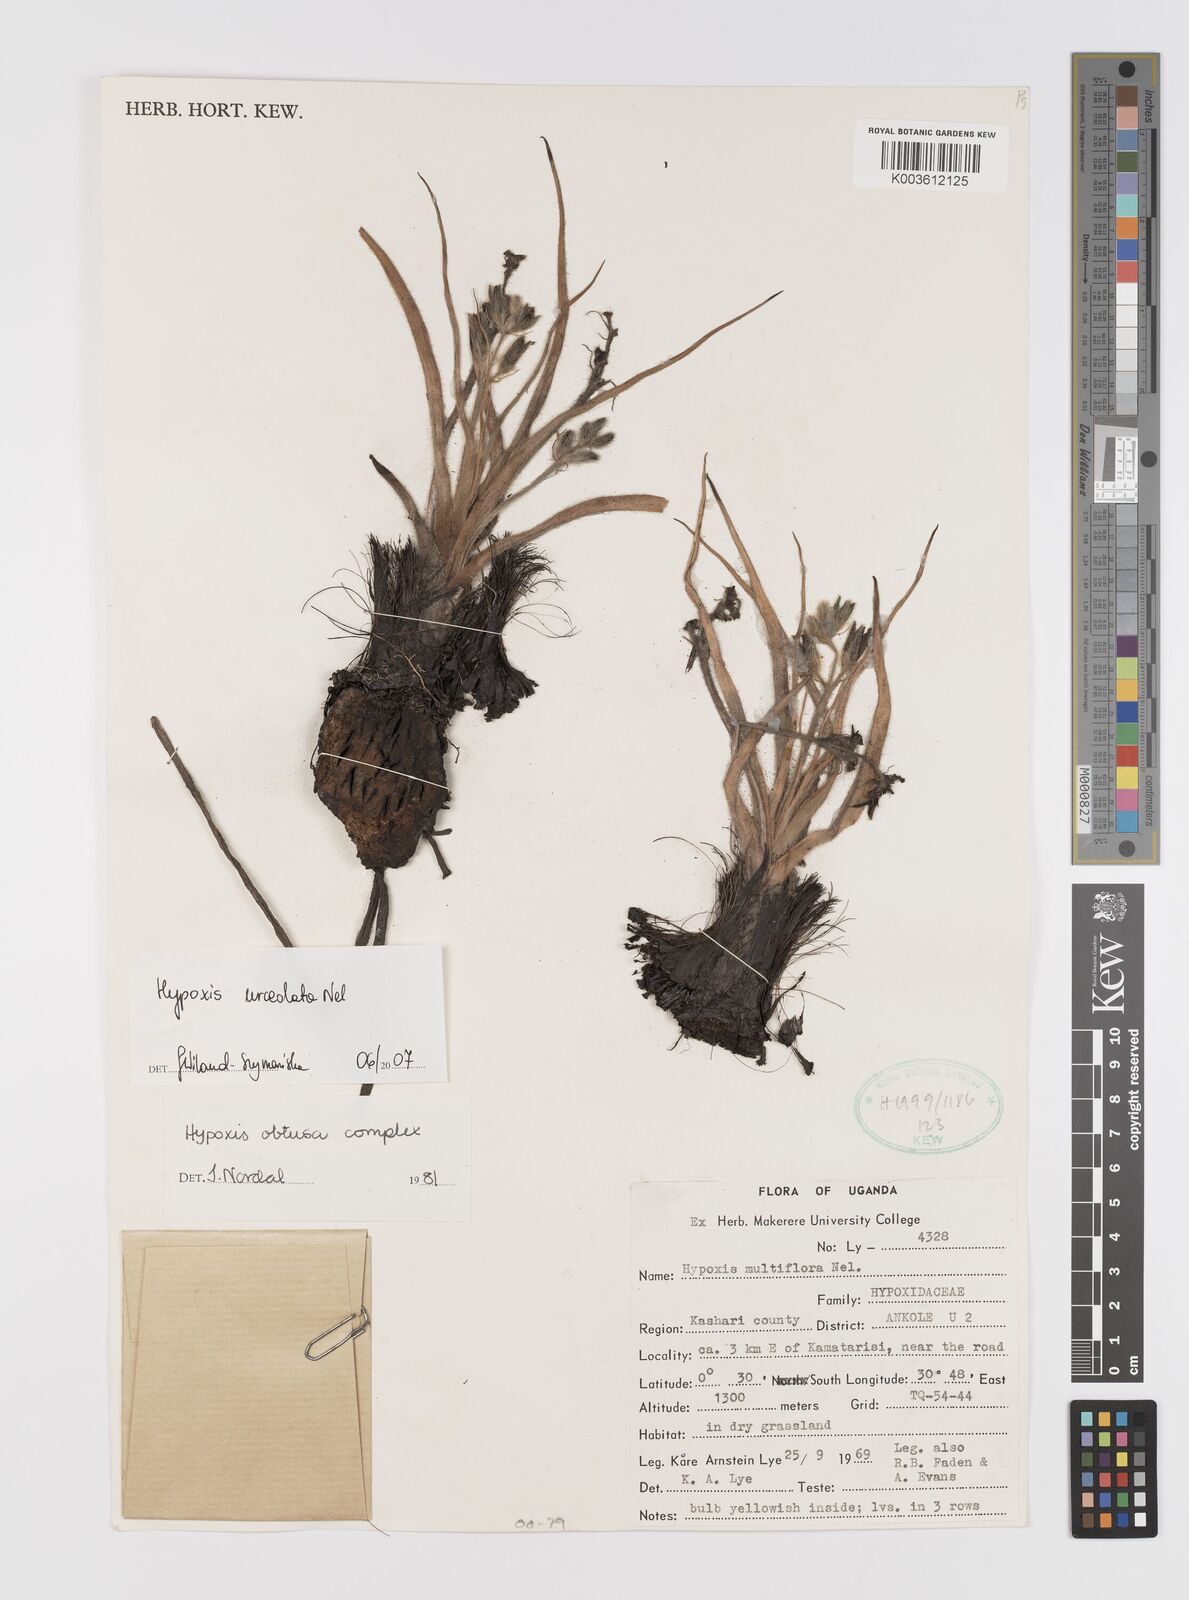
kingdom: Plantae
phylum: Tracheophyta
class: Liliopsida
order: Asparagales
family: Hypoxidaceae
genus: Hypoxis
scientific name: Hypoxis urceolata
